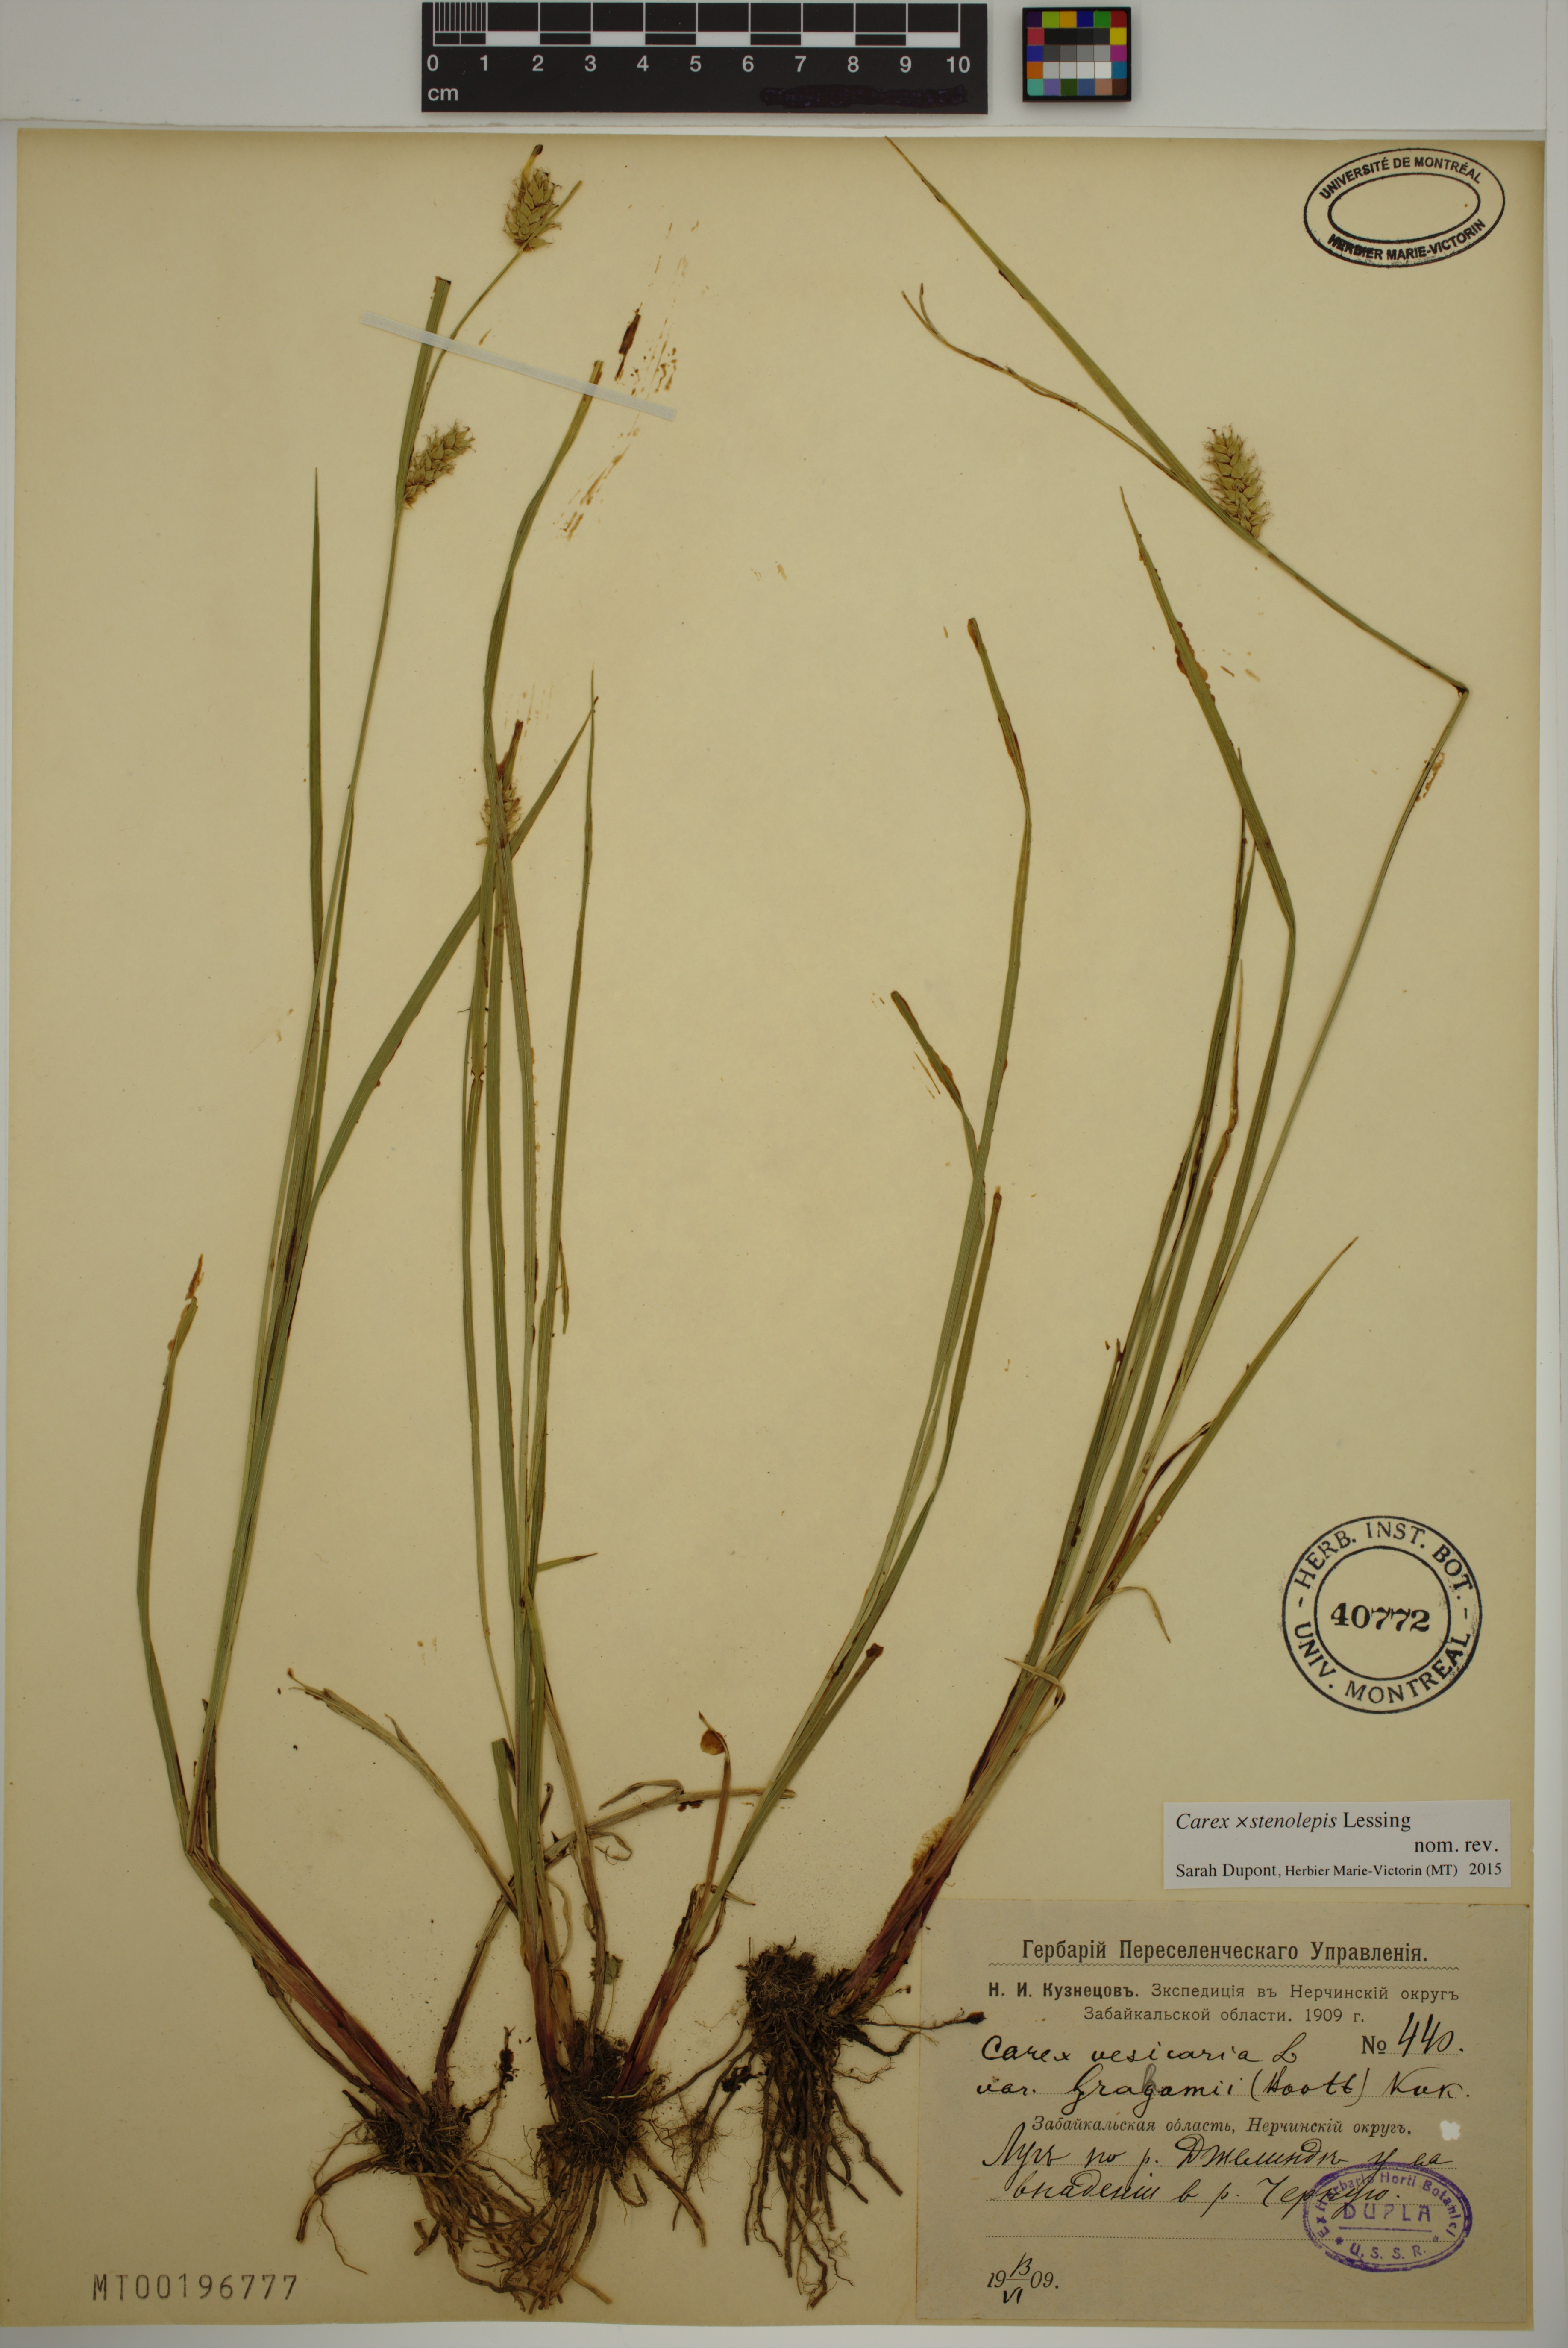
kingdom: Plantae
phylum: Tracheophyta
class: Liliopsida
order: Poales
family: Cyperaceae
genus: Carex
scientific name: Carex rostrata
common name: Bottle sedge
